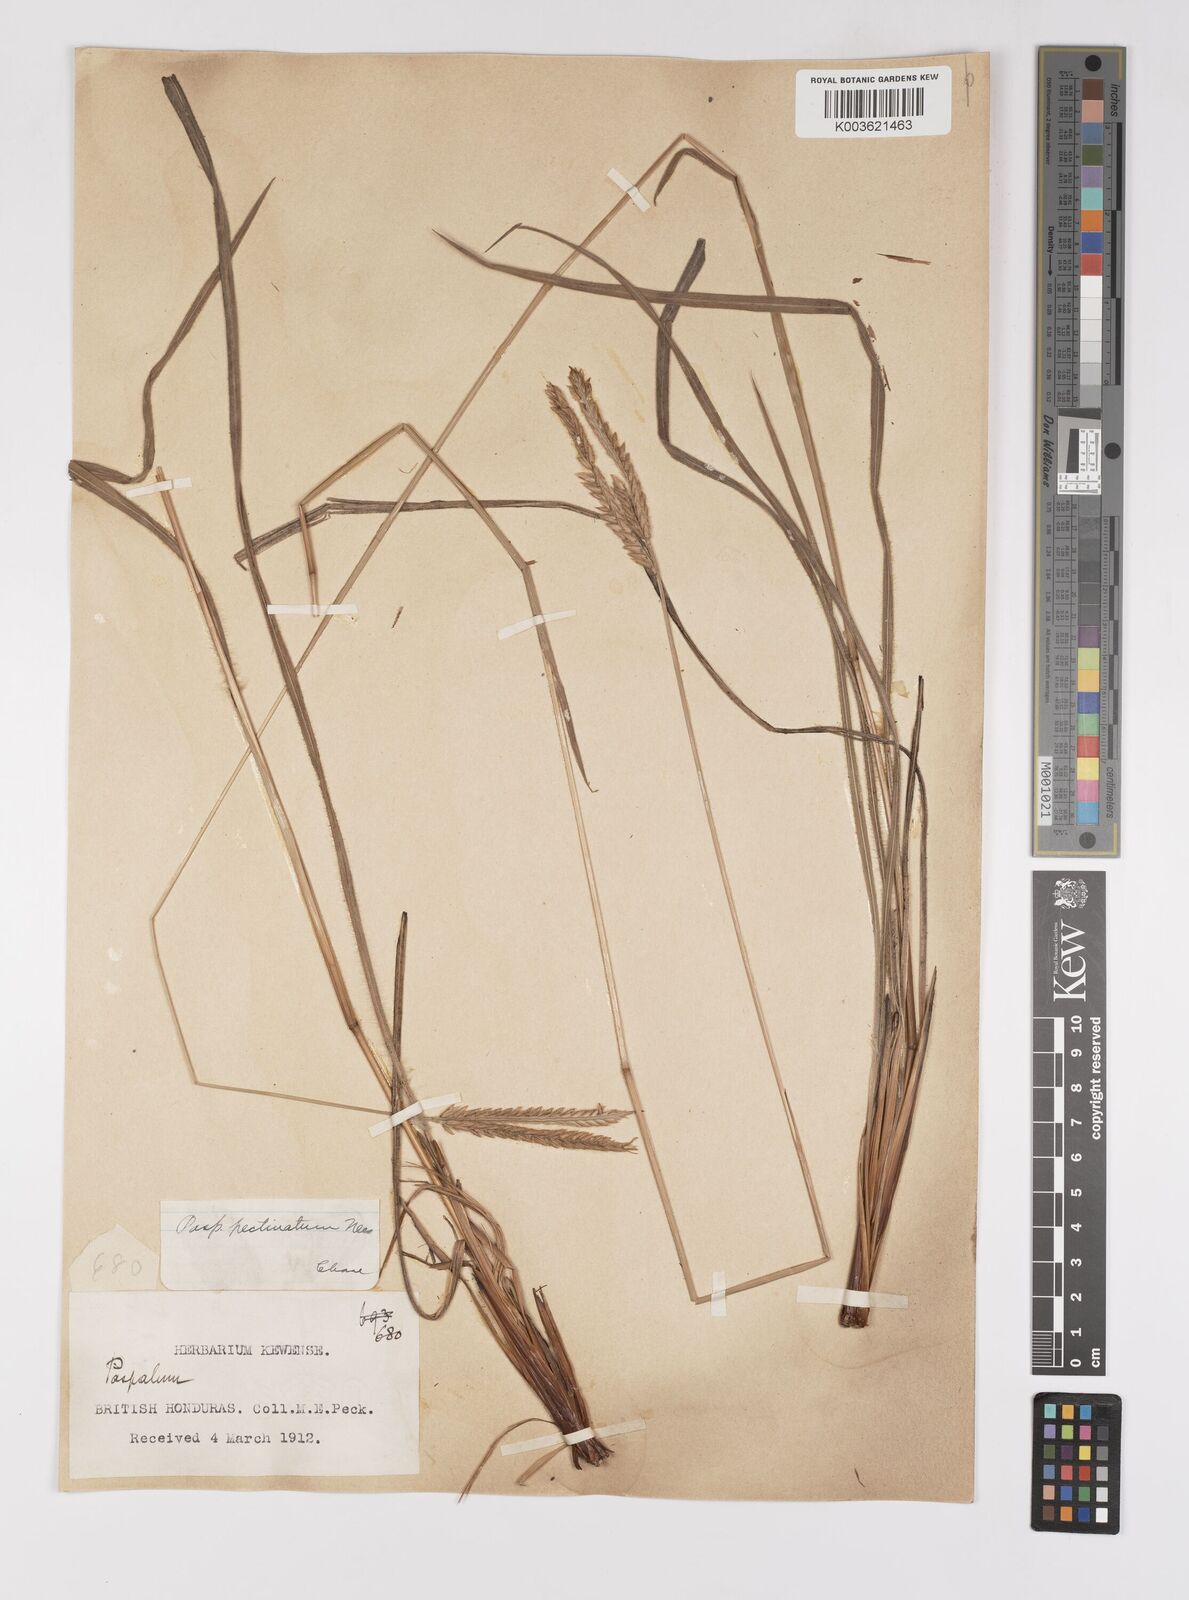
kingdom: Plantae
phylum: Tracheophyta
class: Liliopsida
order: Poales
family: Poaceae
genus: Paspalum
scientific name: Paspalum pectinatum
